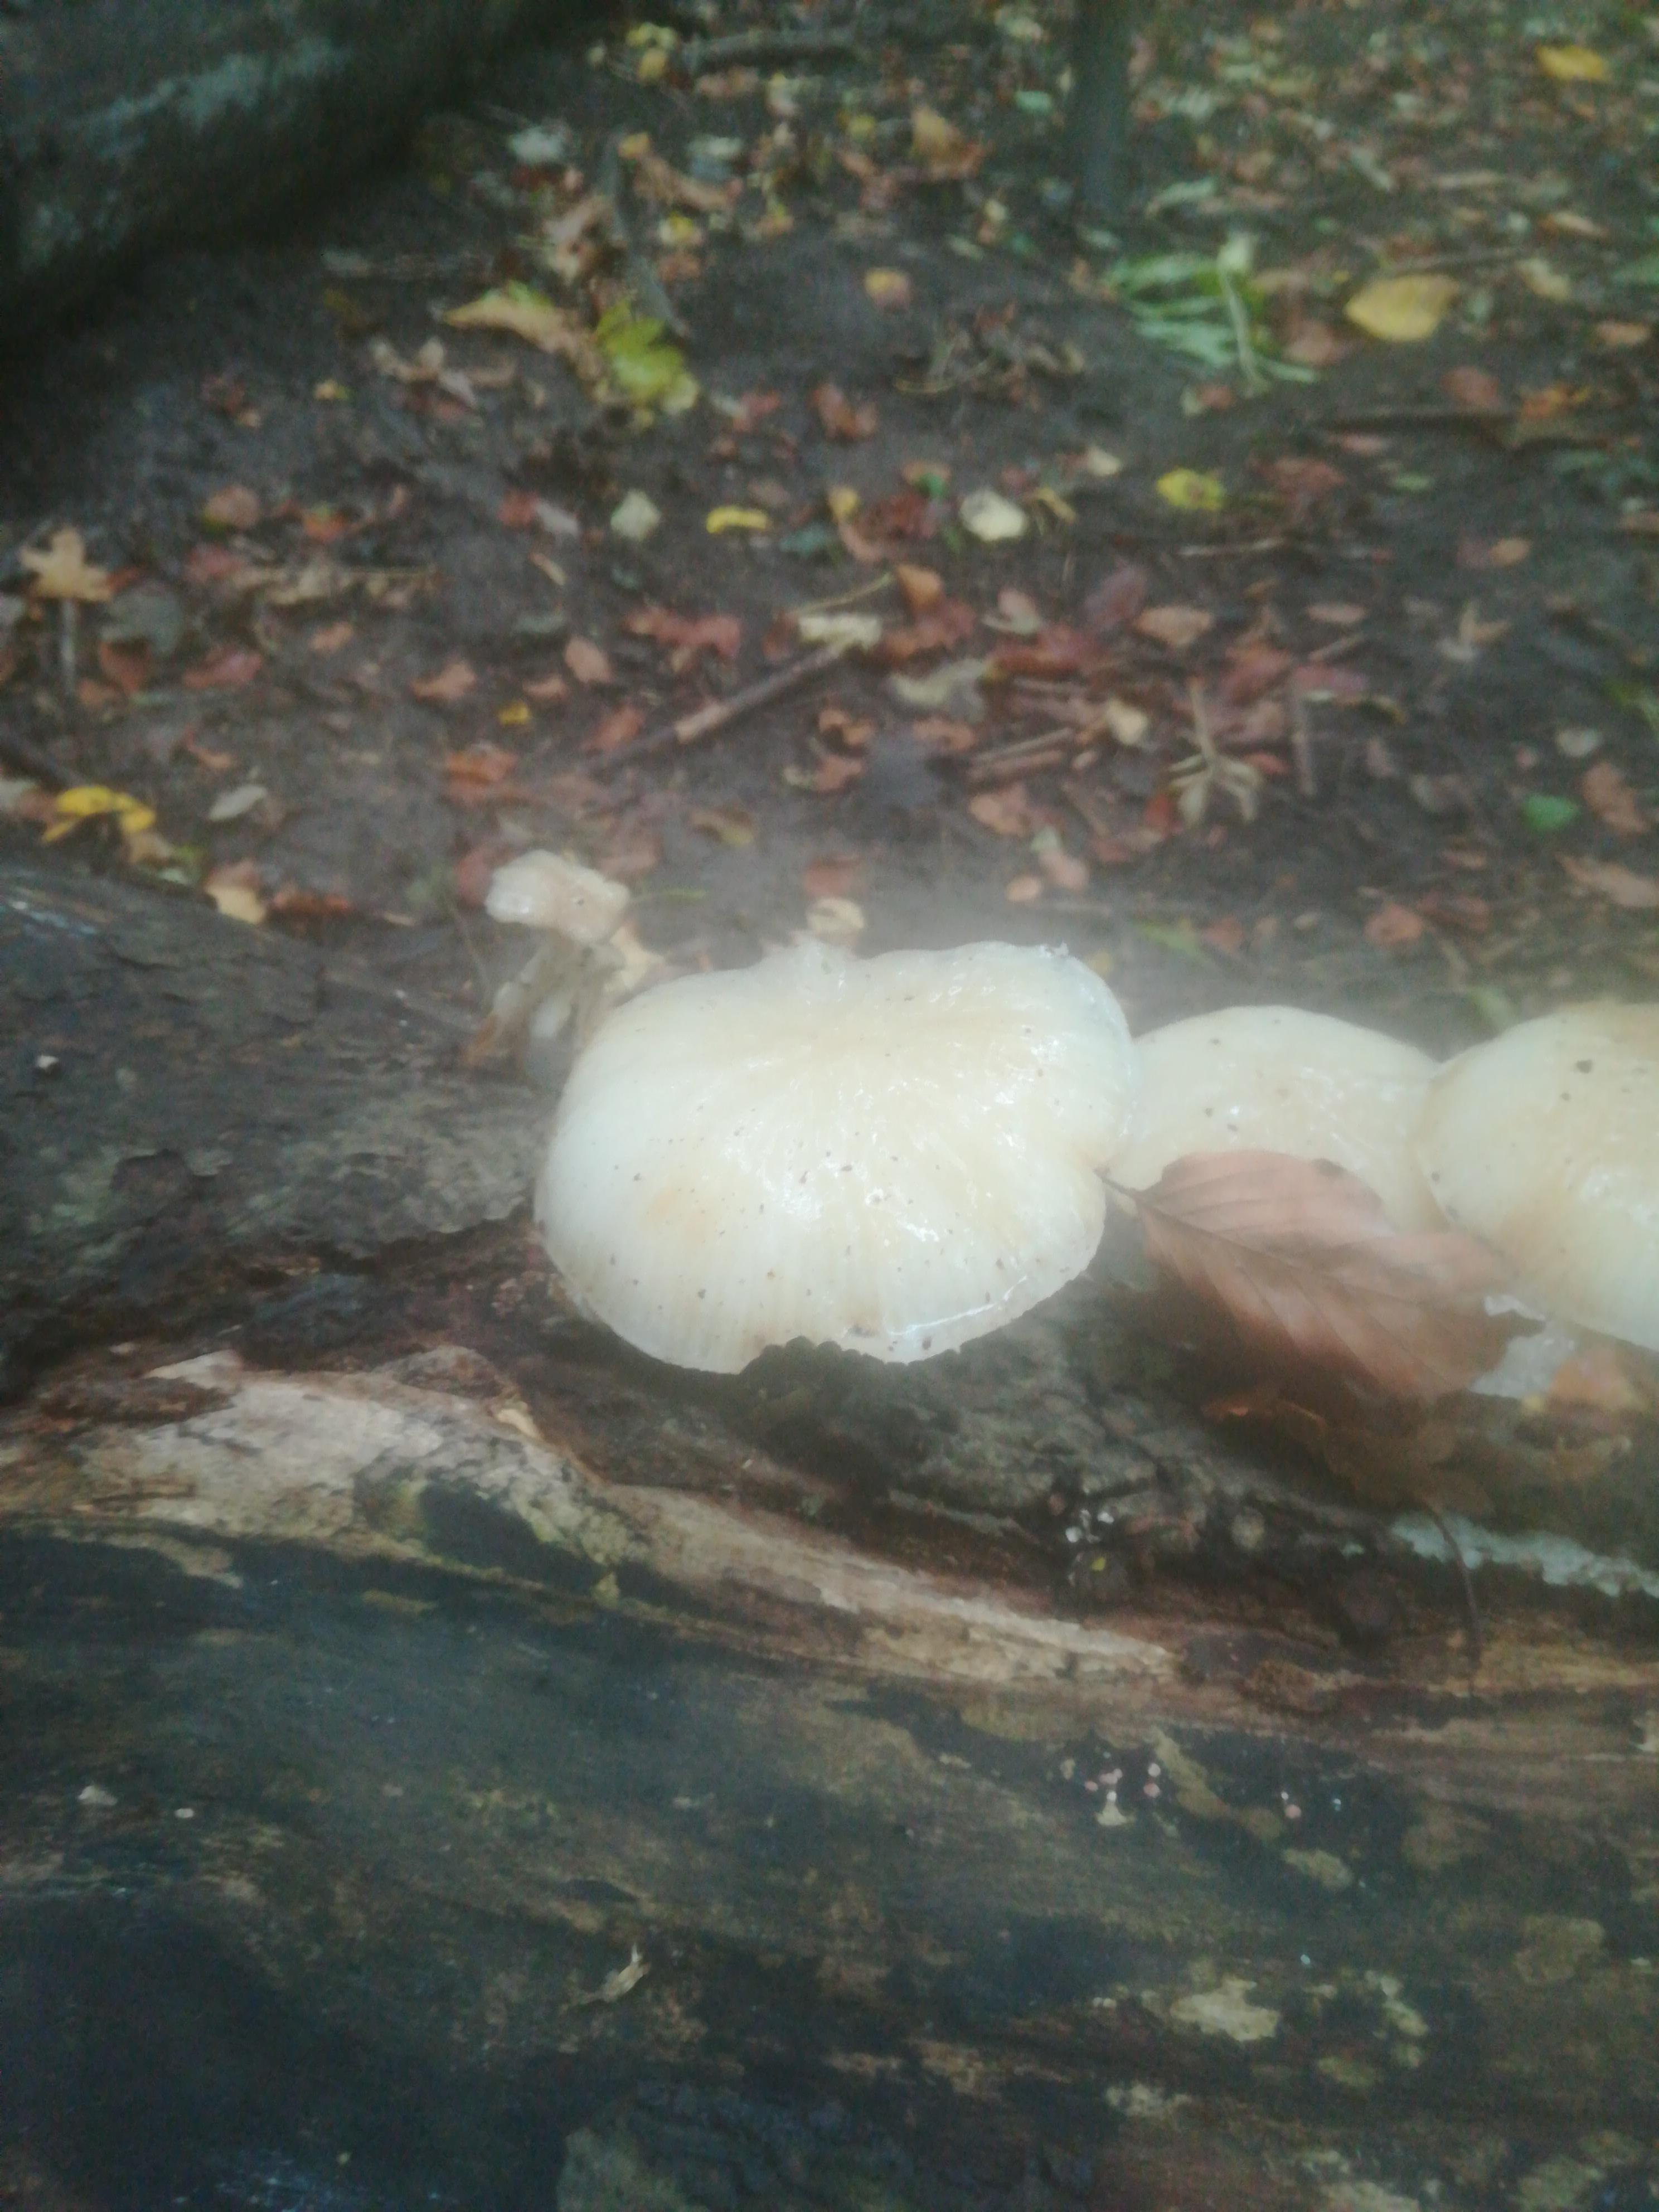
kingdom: Fungi
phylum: Basidiomycota
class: Agaricomycetes
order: Agaricales
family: Physalacriaceae
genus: Mucidula
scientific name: Mucidula mucida
